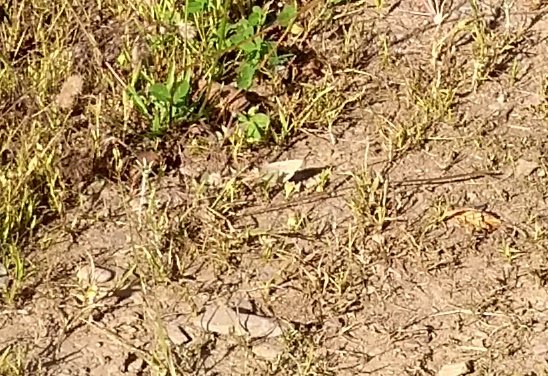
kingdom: Animalia
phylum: Arthropoda
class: Insecta
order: Lepidoptera
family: Pieridae
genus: Colias
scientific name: Colias philodice
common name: Clouded Sulphur
